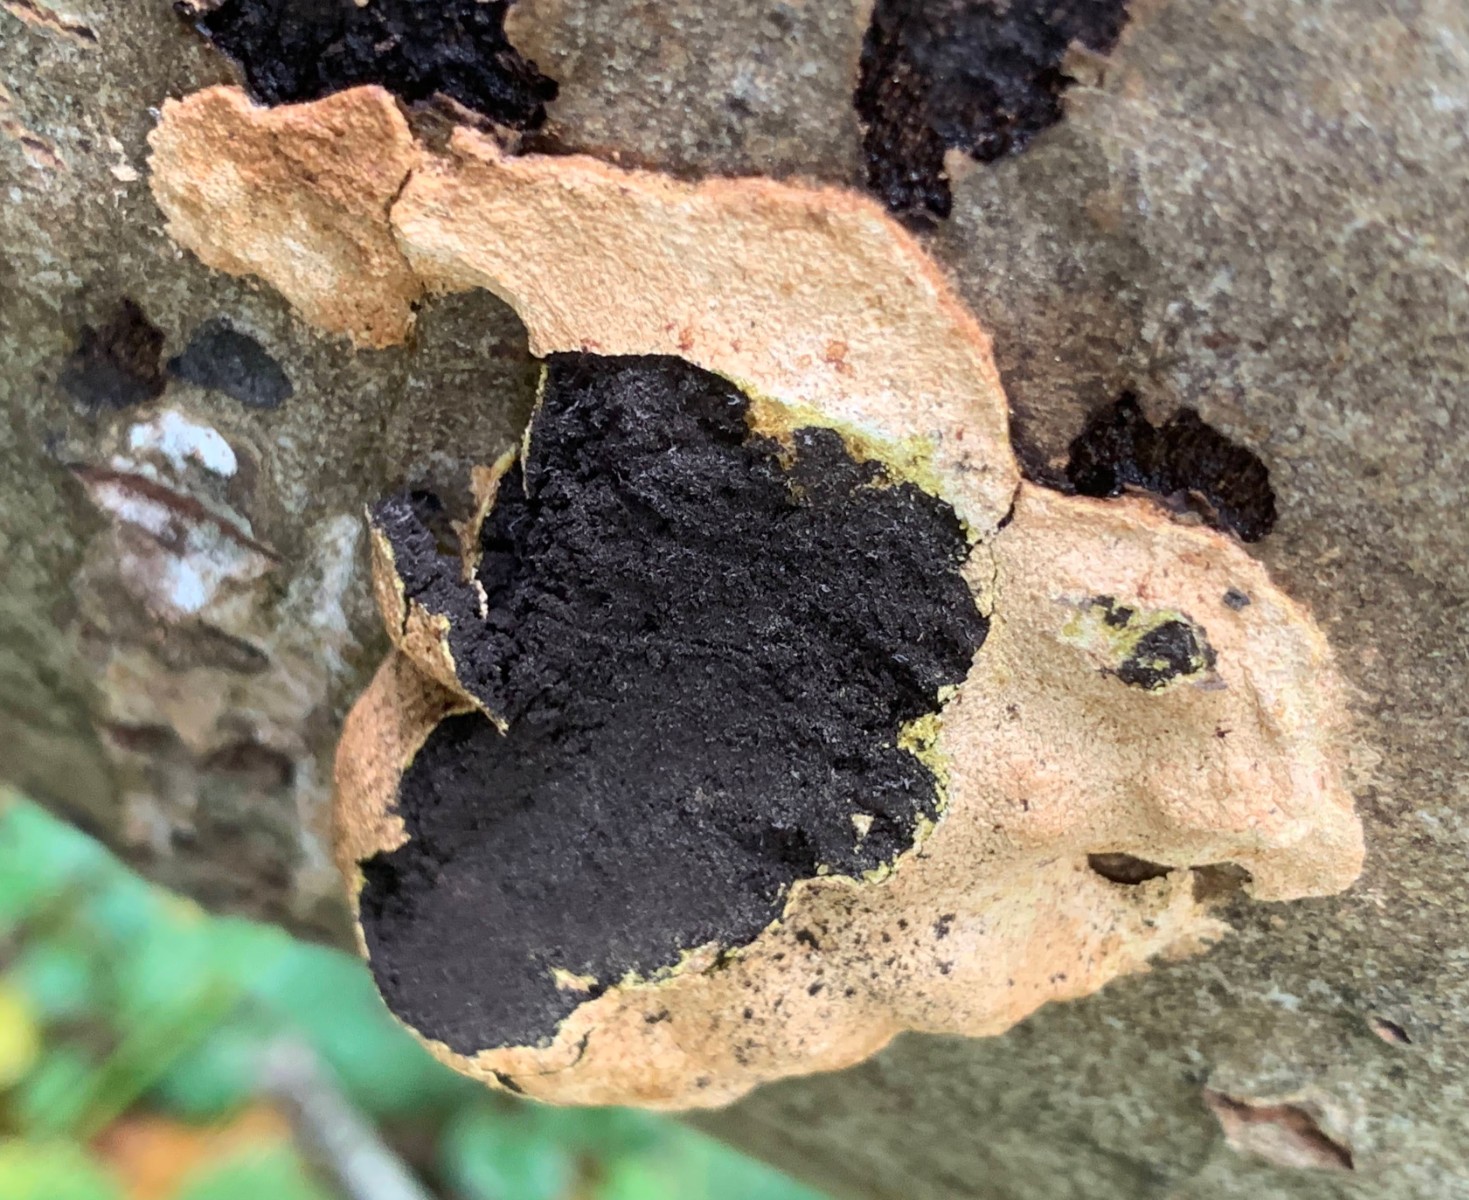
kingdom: Protozoa
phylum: Mycetozoa
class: Myxomycetes
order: Physarales
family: Physaraceae
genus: Fuligo
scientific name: Fuligo
